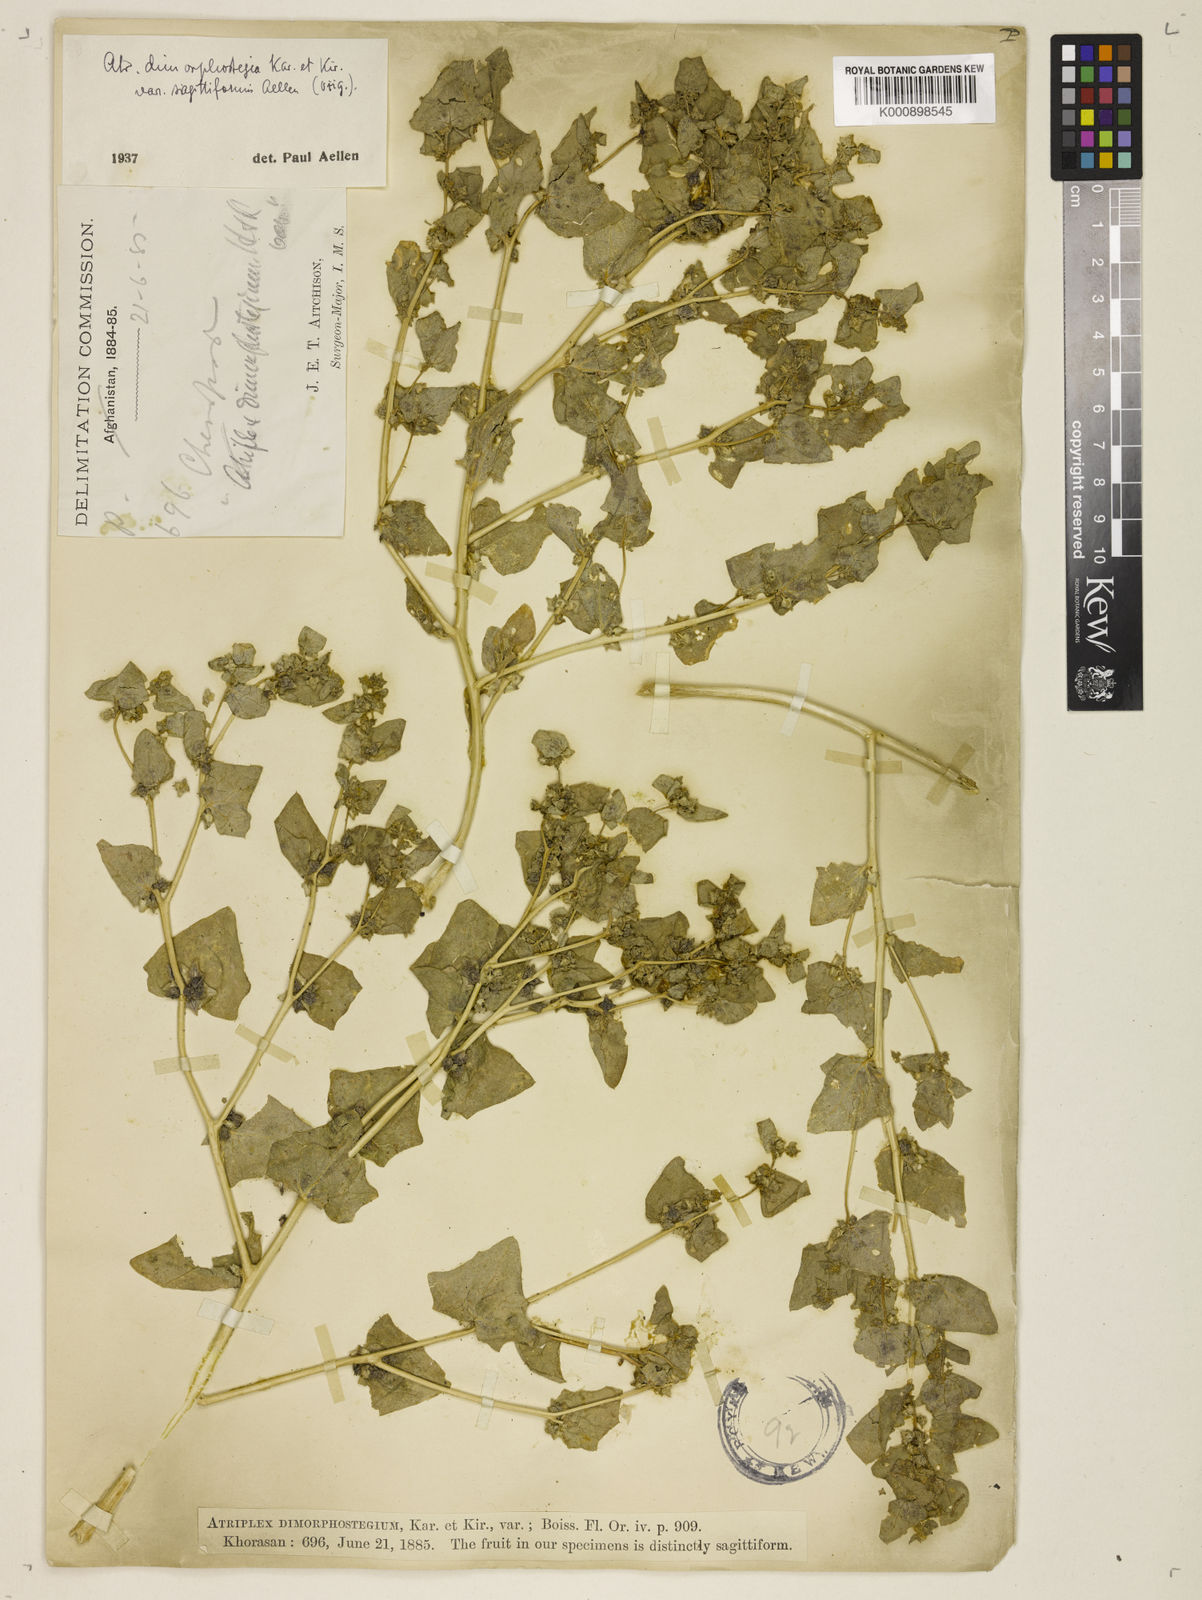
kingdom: Plantae
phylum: Tracheophyta
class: Magnoliopsida
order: Caryophyllales
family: Amaranthaceae
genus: Atriplex
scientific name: Atriplex dimorphostegia
